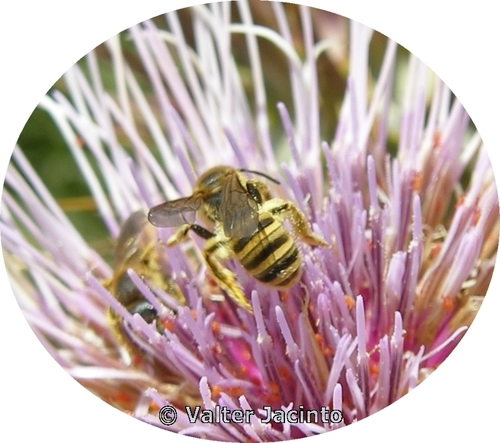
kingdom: Animalia
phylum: Arthropoda
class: Insecta
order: Hymenoptera
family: Halictidae
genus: Halictus
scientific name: Halictus scabiosae
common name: Great banded furrow bee
